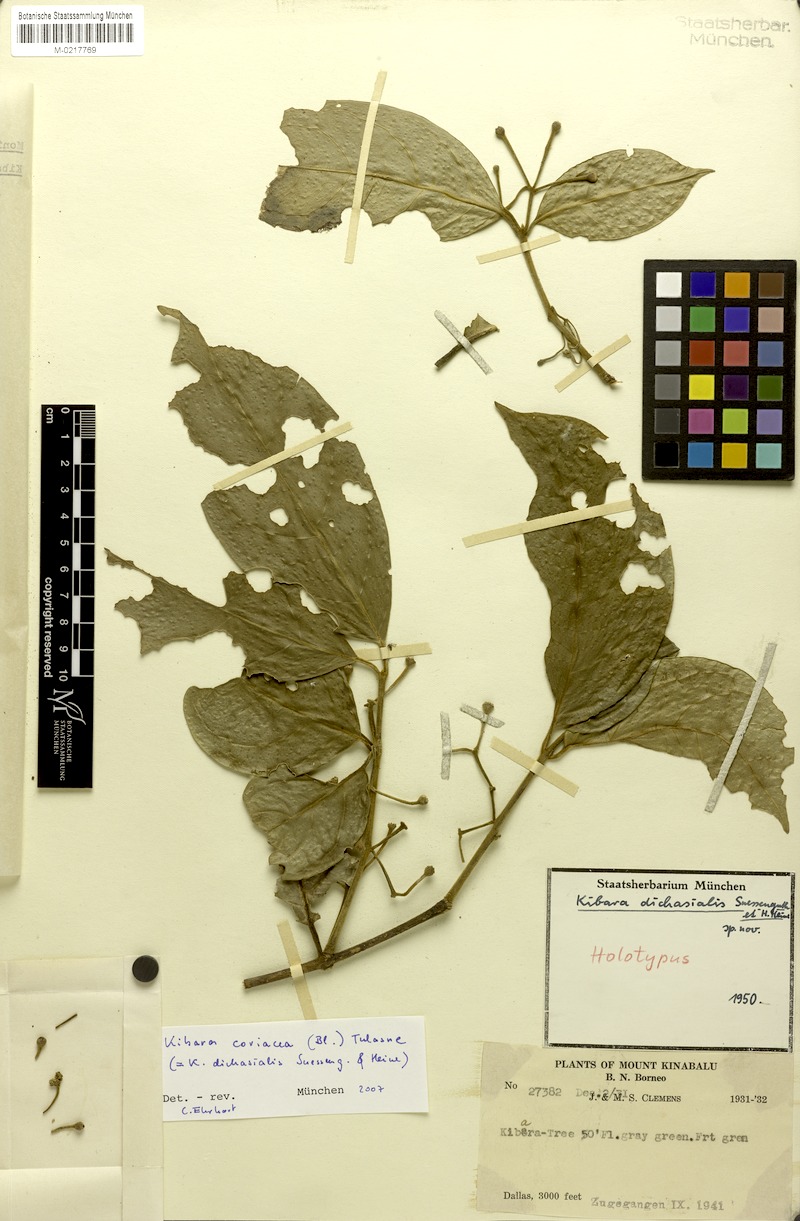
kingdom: Plantae
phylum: Tracheophyta
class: Magnoliopsida
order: Laurales
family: Monimiaceae
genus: Kibara
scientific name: Kibara coriacea
